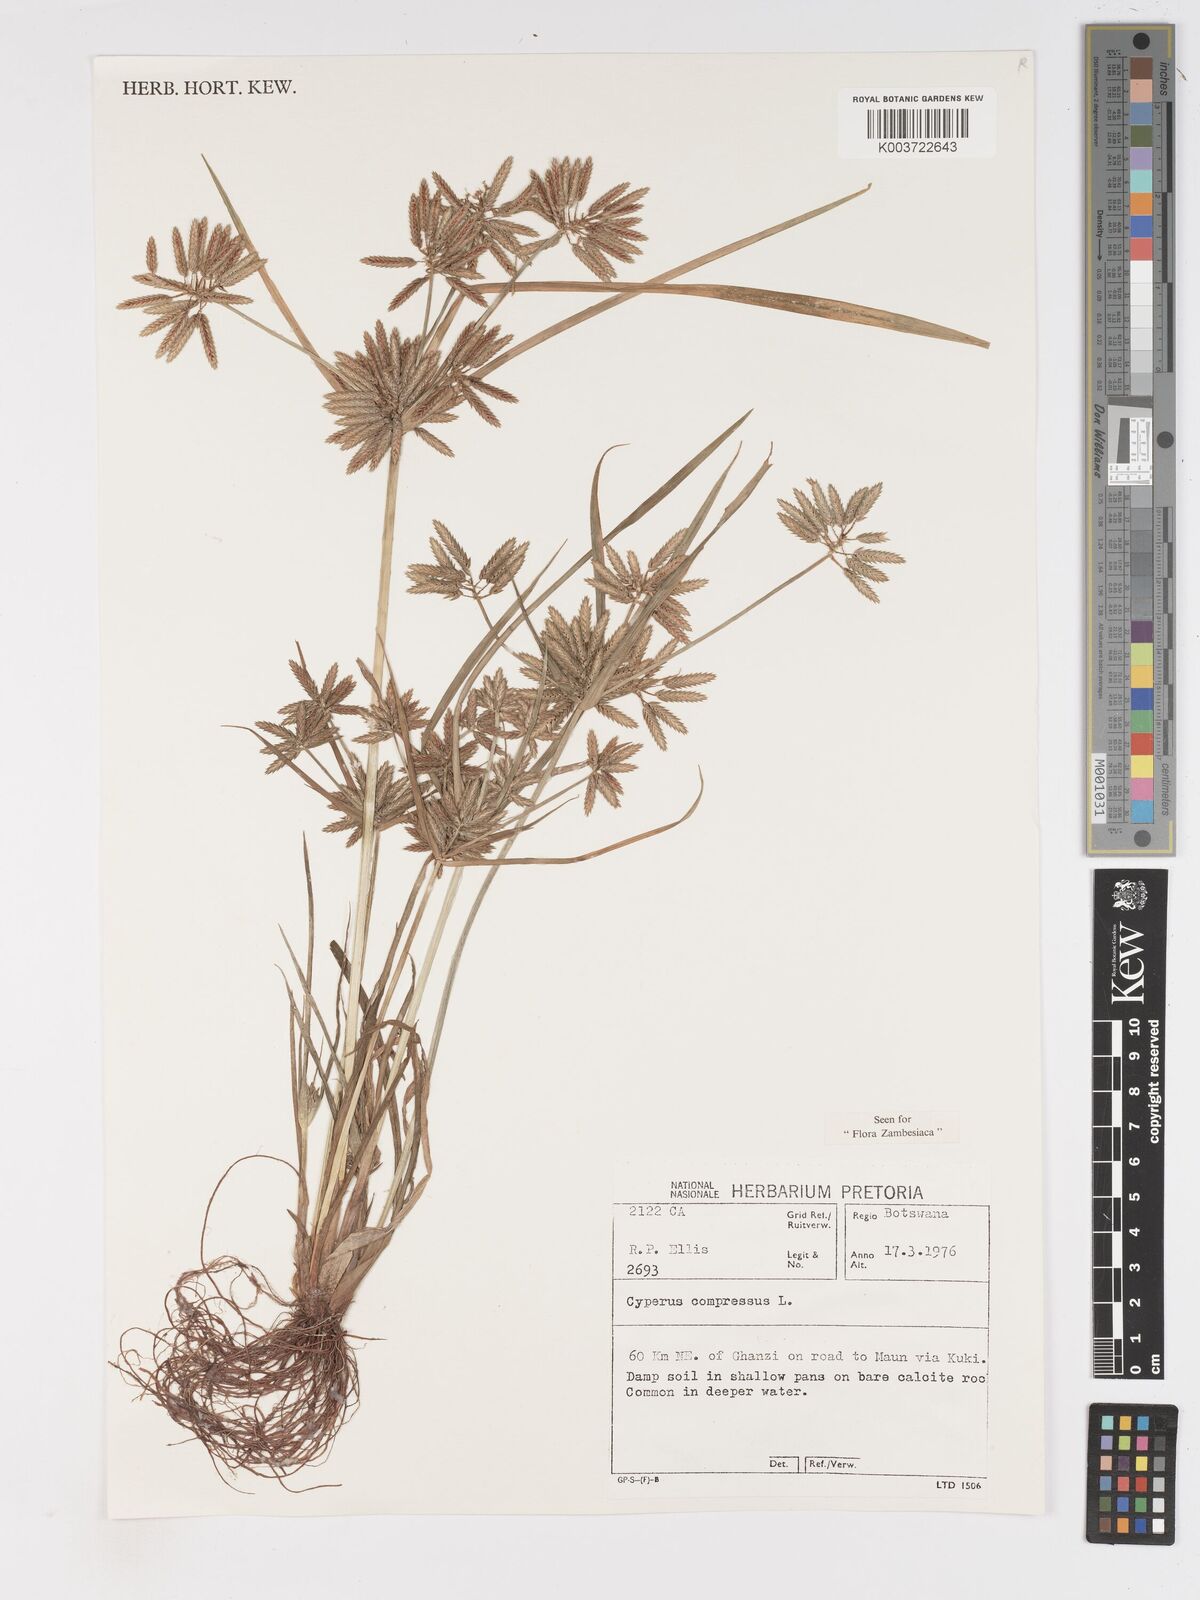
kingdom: Plantae
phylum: Tracheophyta
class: Liliopsida
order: Poales
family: Cyperaceae
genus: Cyperus
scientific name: Cyperus compressus
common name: Poorland flatsedge
